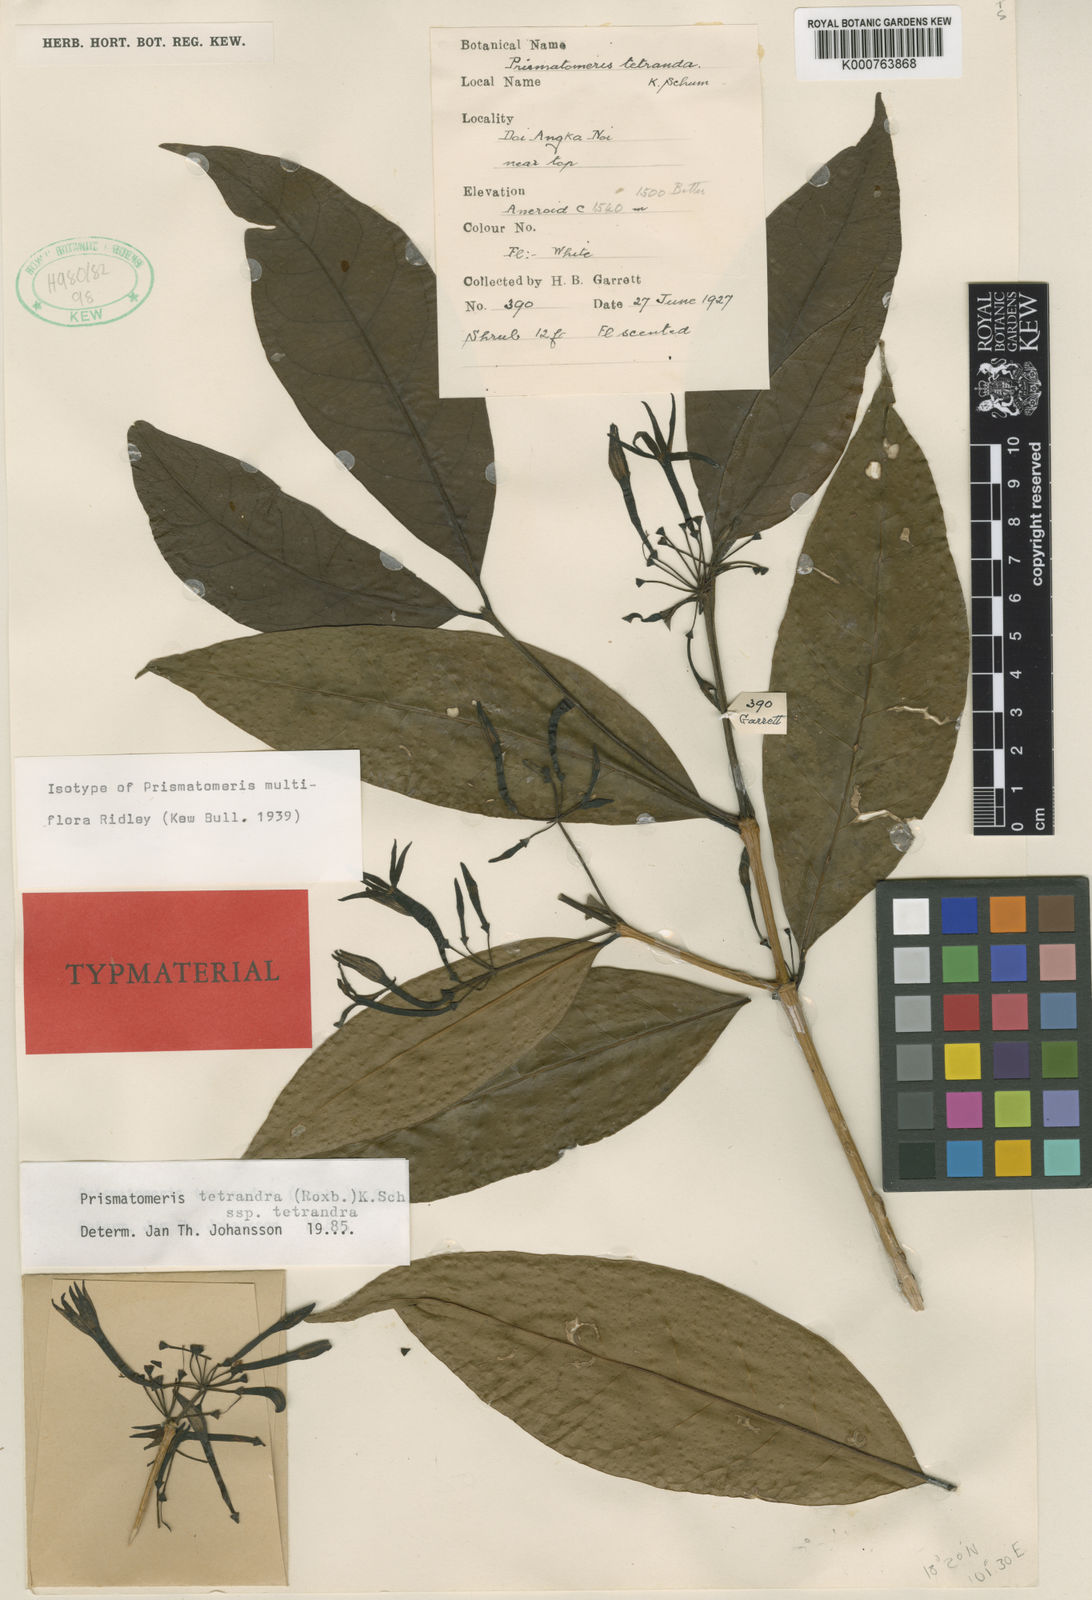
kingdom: Plantae
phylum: Tracheophyta
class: Magnoliopsida
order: Gentianales
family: Rubiaceae
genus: Prismatomeris
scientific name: Prismatomeris tetrandra
